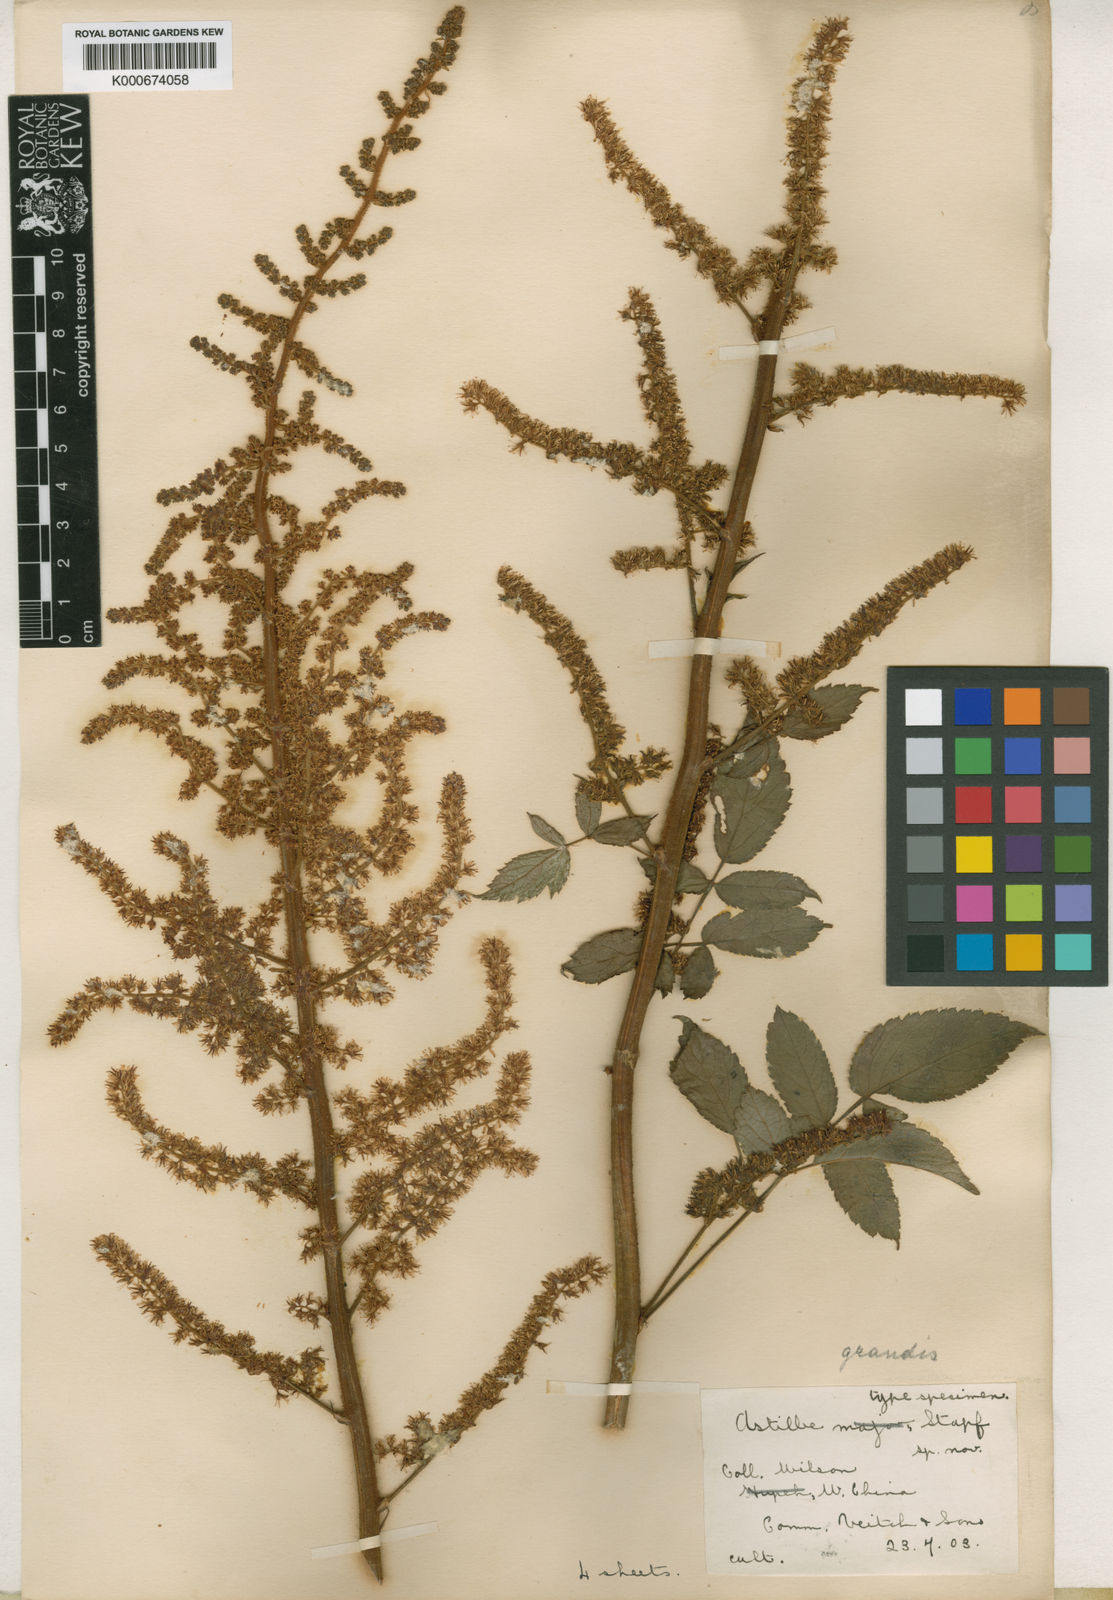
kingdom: Plantae
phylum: Tracheophyta
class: Magnoliopsida
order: Saxifragales
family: Saxifragaceae
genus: Astilbe
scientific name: Astilbe grandis
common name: Korean astilbe
